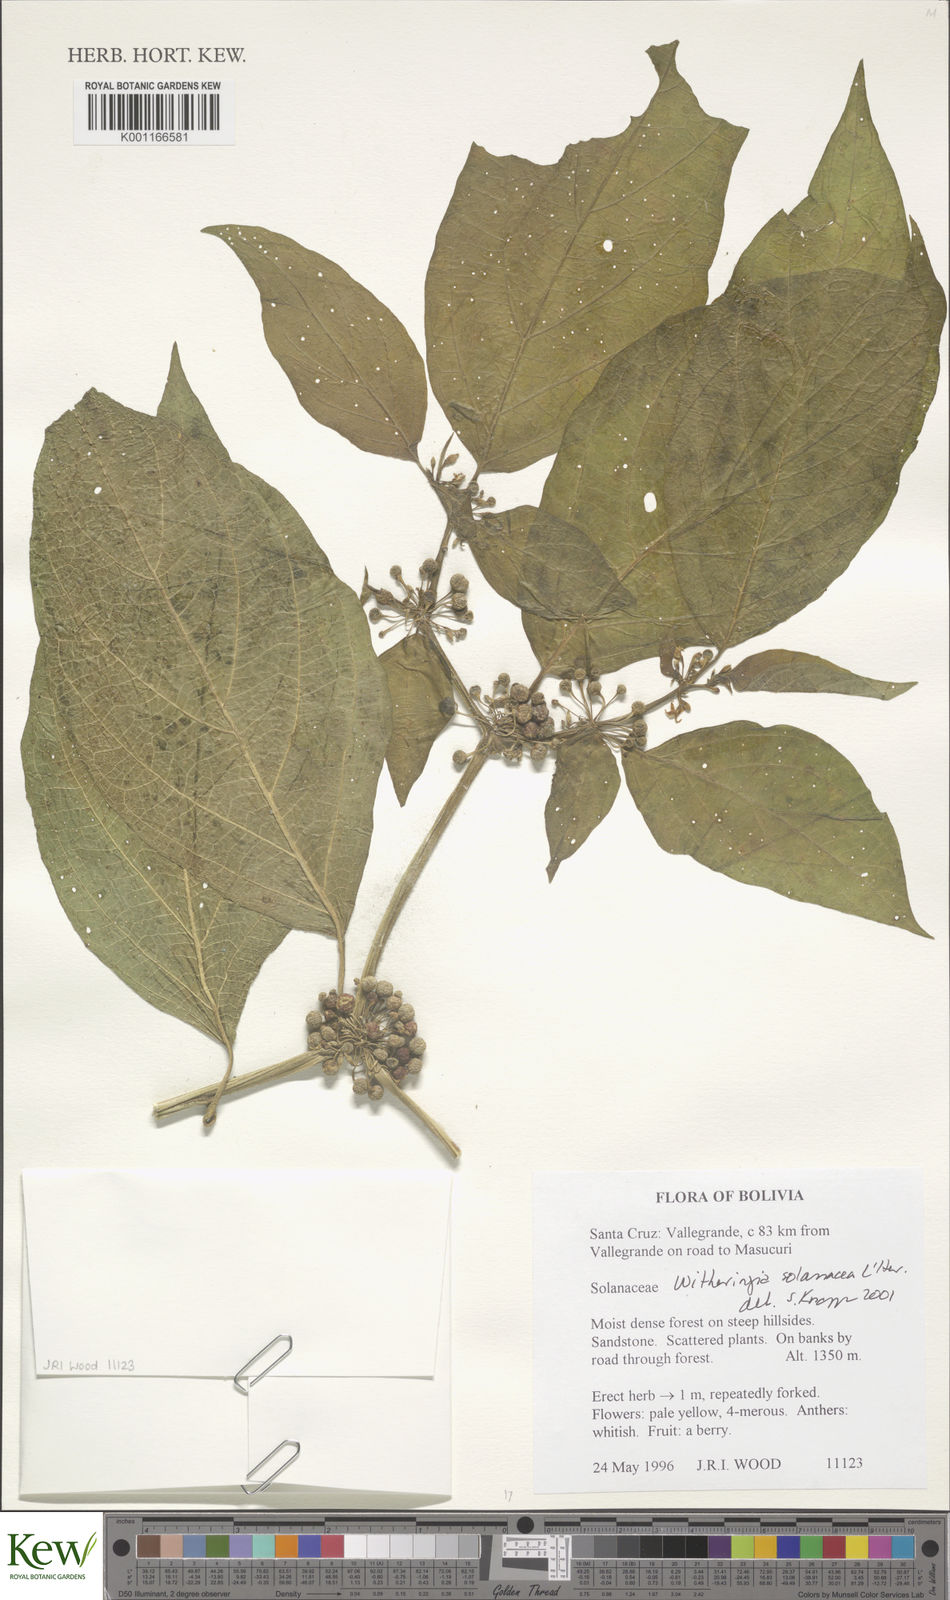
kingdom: Plantae
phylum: Tracheophyta
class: Magnoliopsida
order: Solanales
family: Solanaceae
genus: Solanum
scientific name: Solanum
